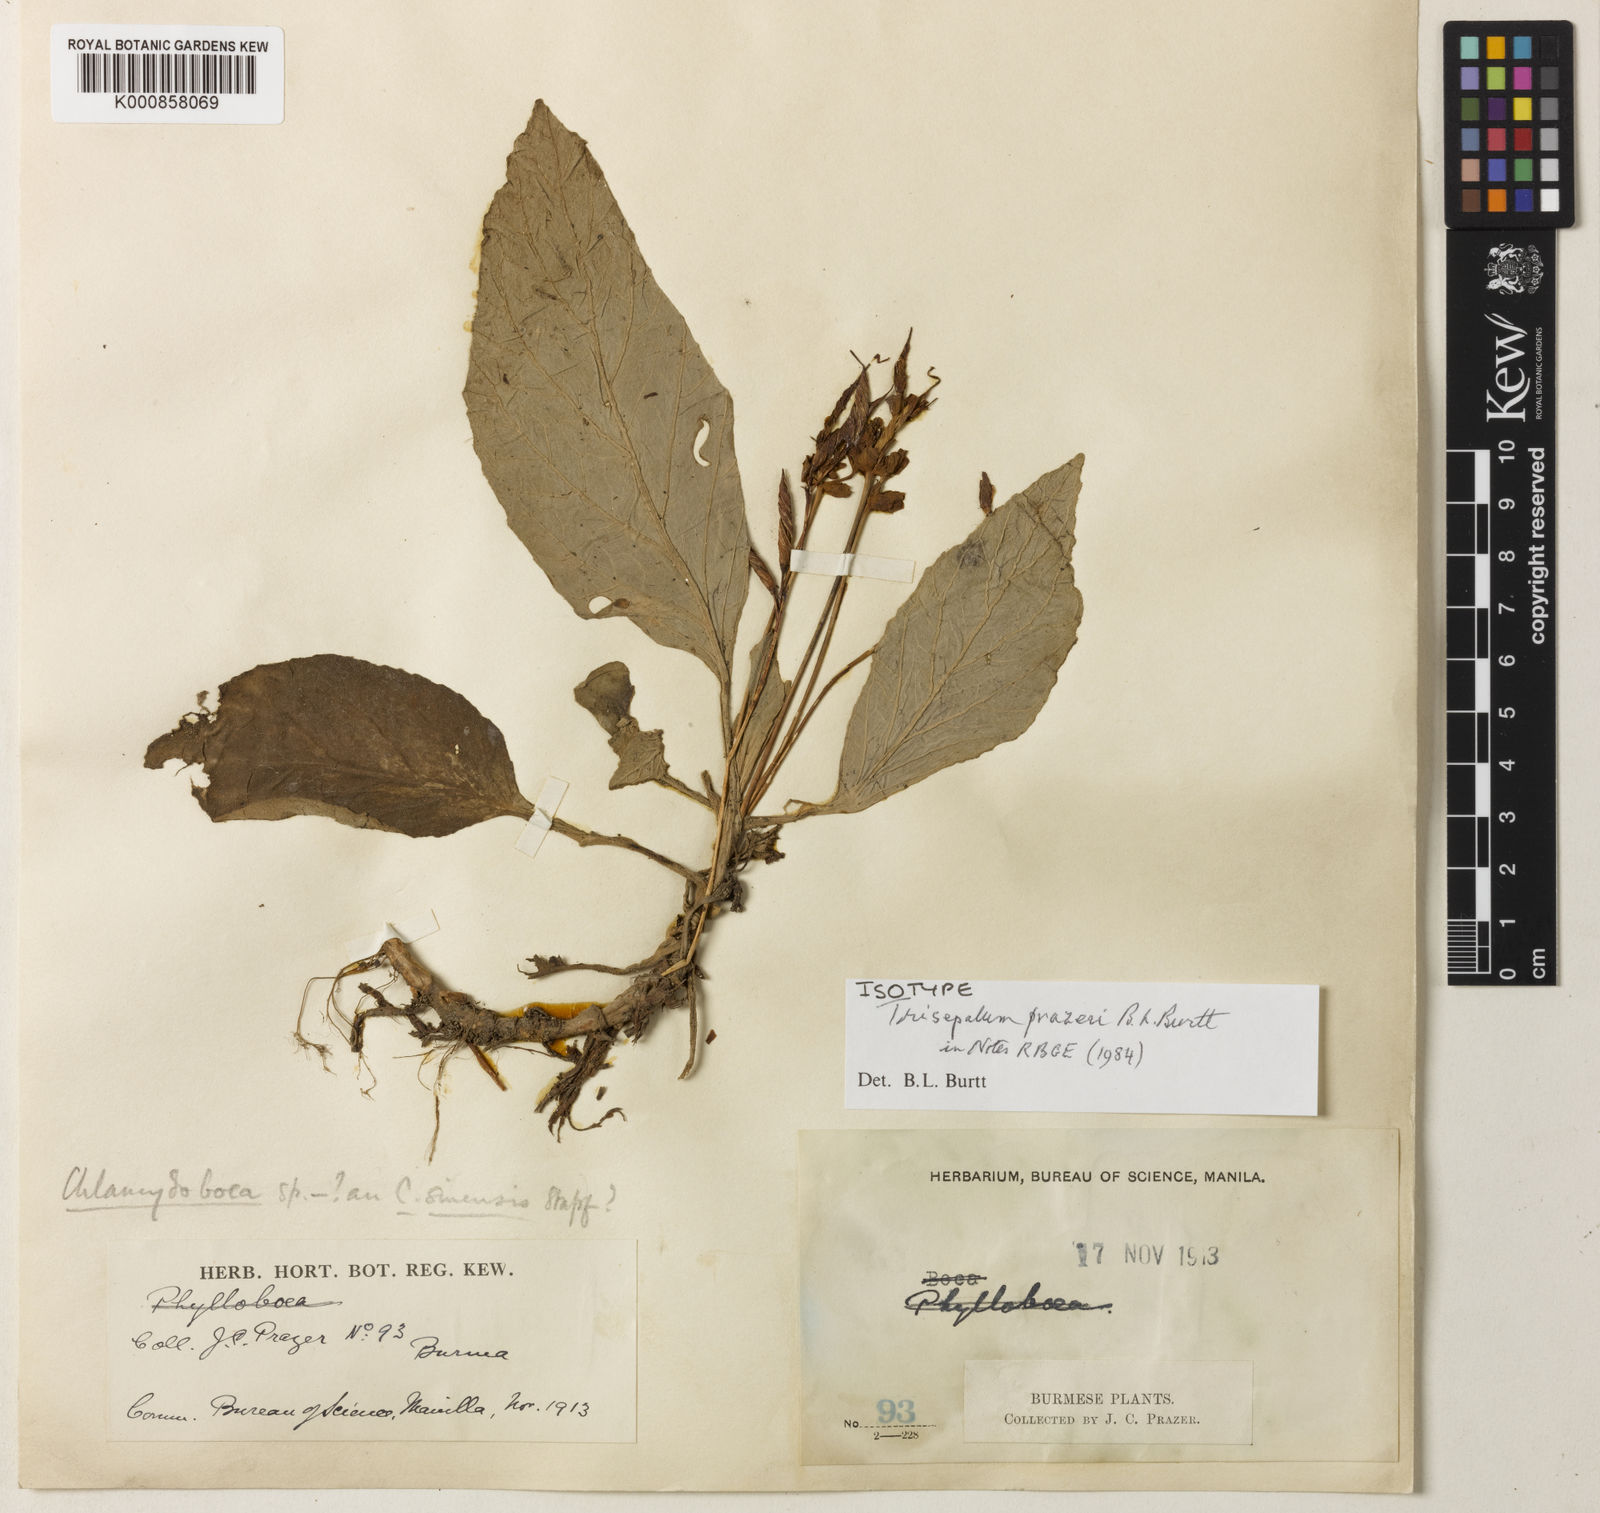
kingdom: Plantae
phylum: Tracheophyta
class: Magnoliopsida
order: Lamiales
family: Gesneriaceae
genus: Paraboea
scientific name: Paraboea prazeri
